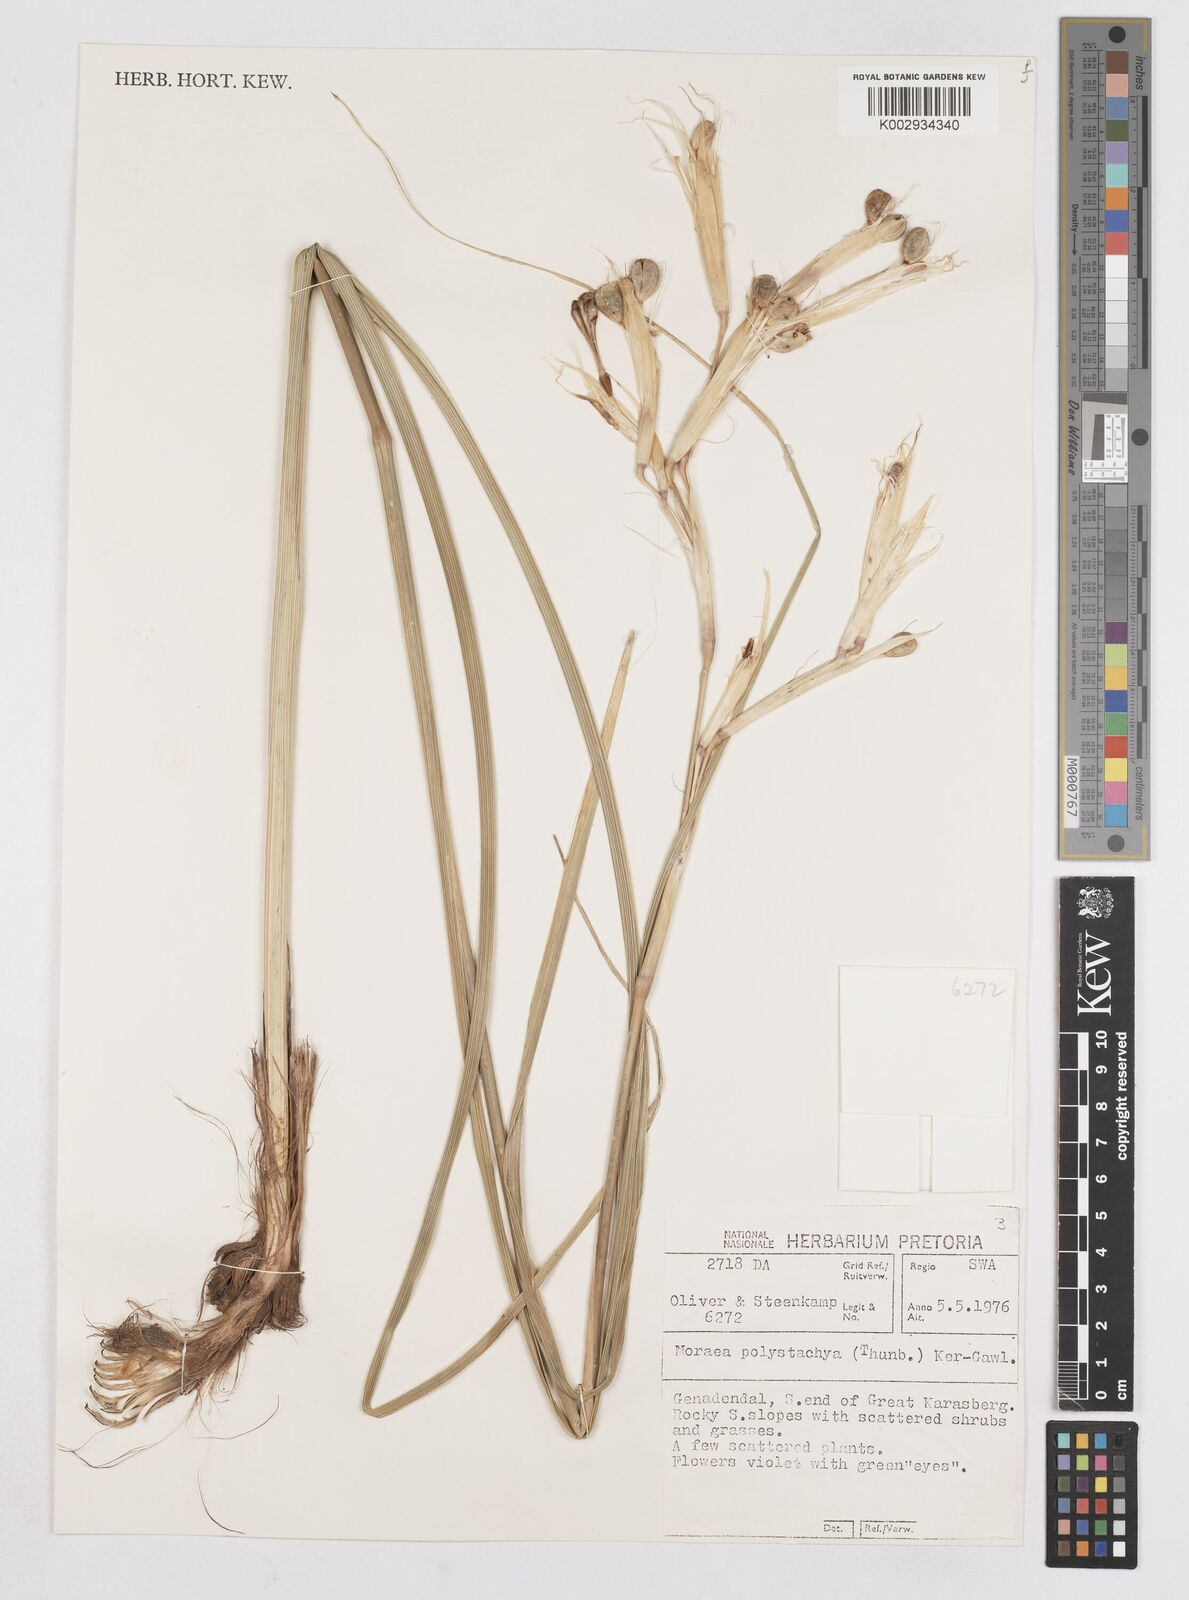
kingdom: Plantae
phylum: Tracheophyta
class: Liliopsida
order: Asparagales
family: Iridaceae
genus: Moraea
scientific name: Moraea polystachya
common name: Blue-tulip
